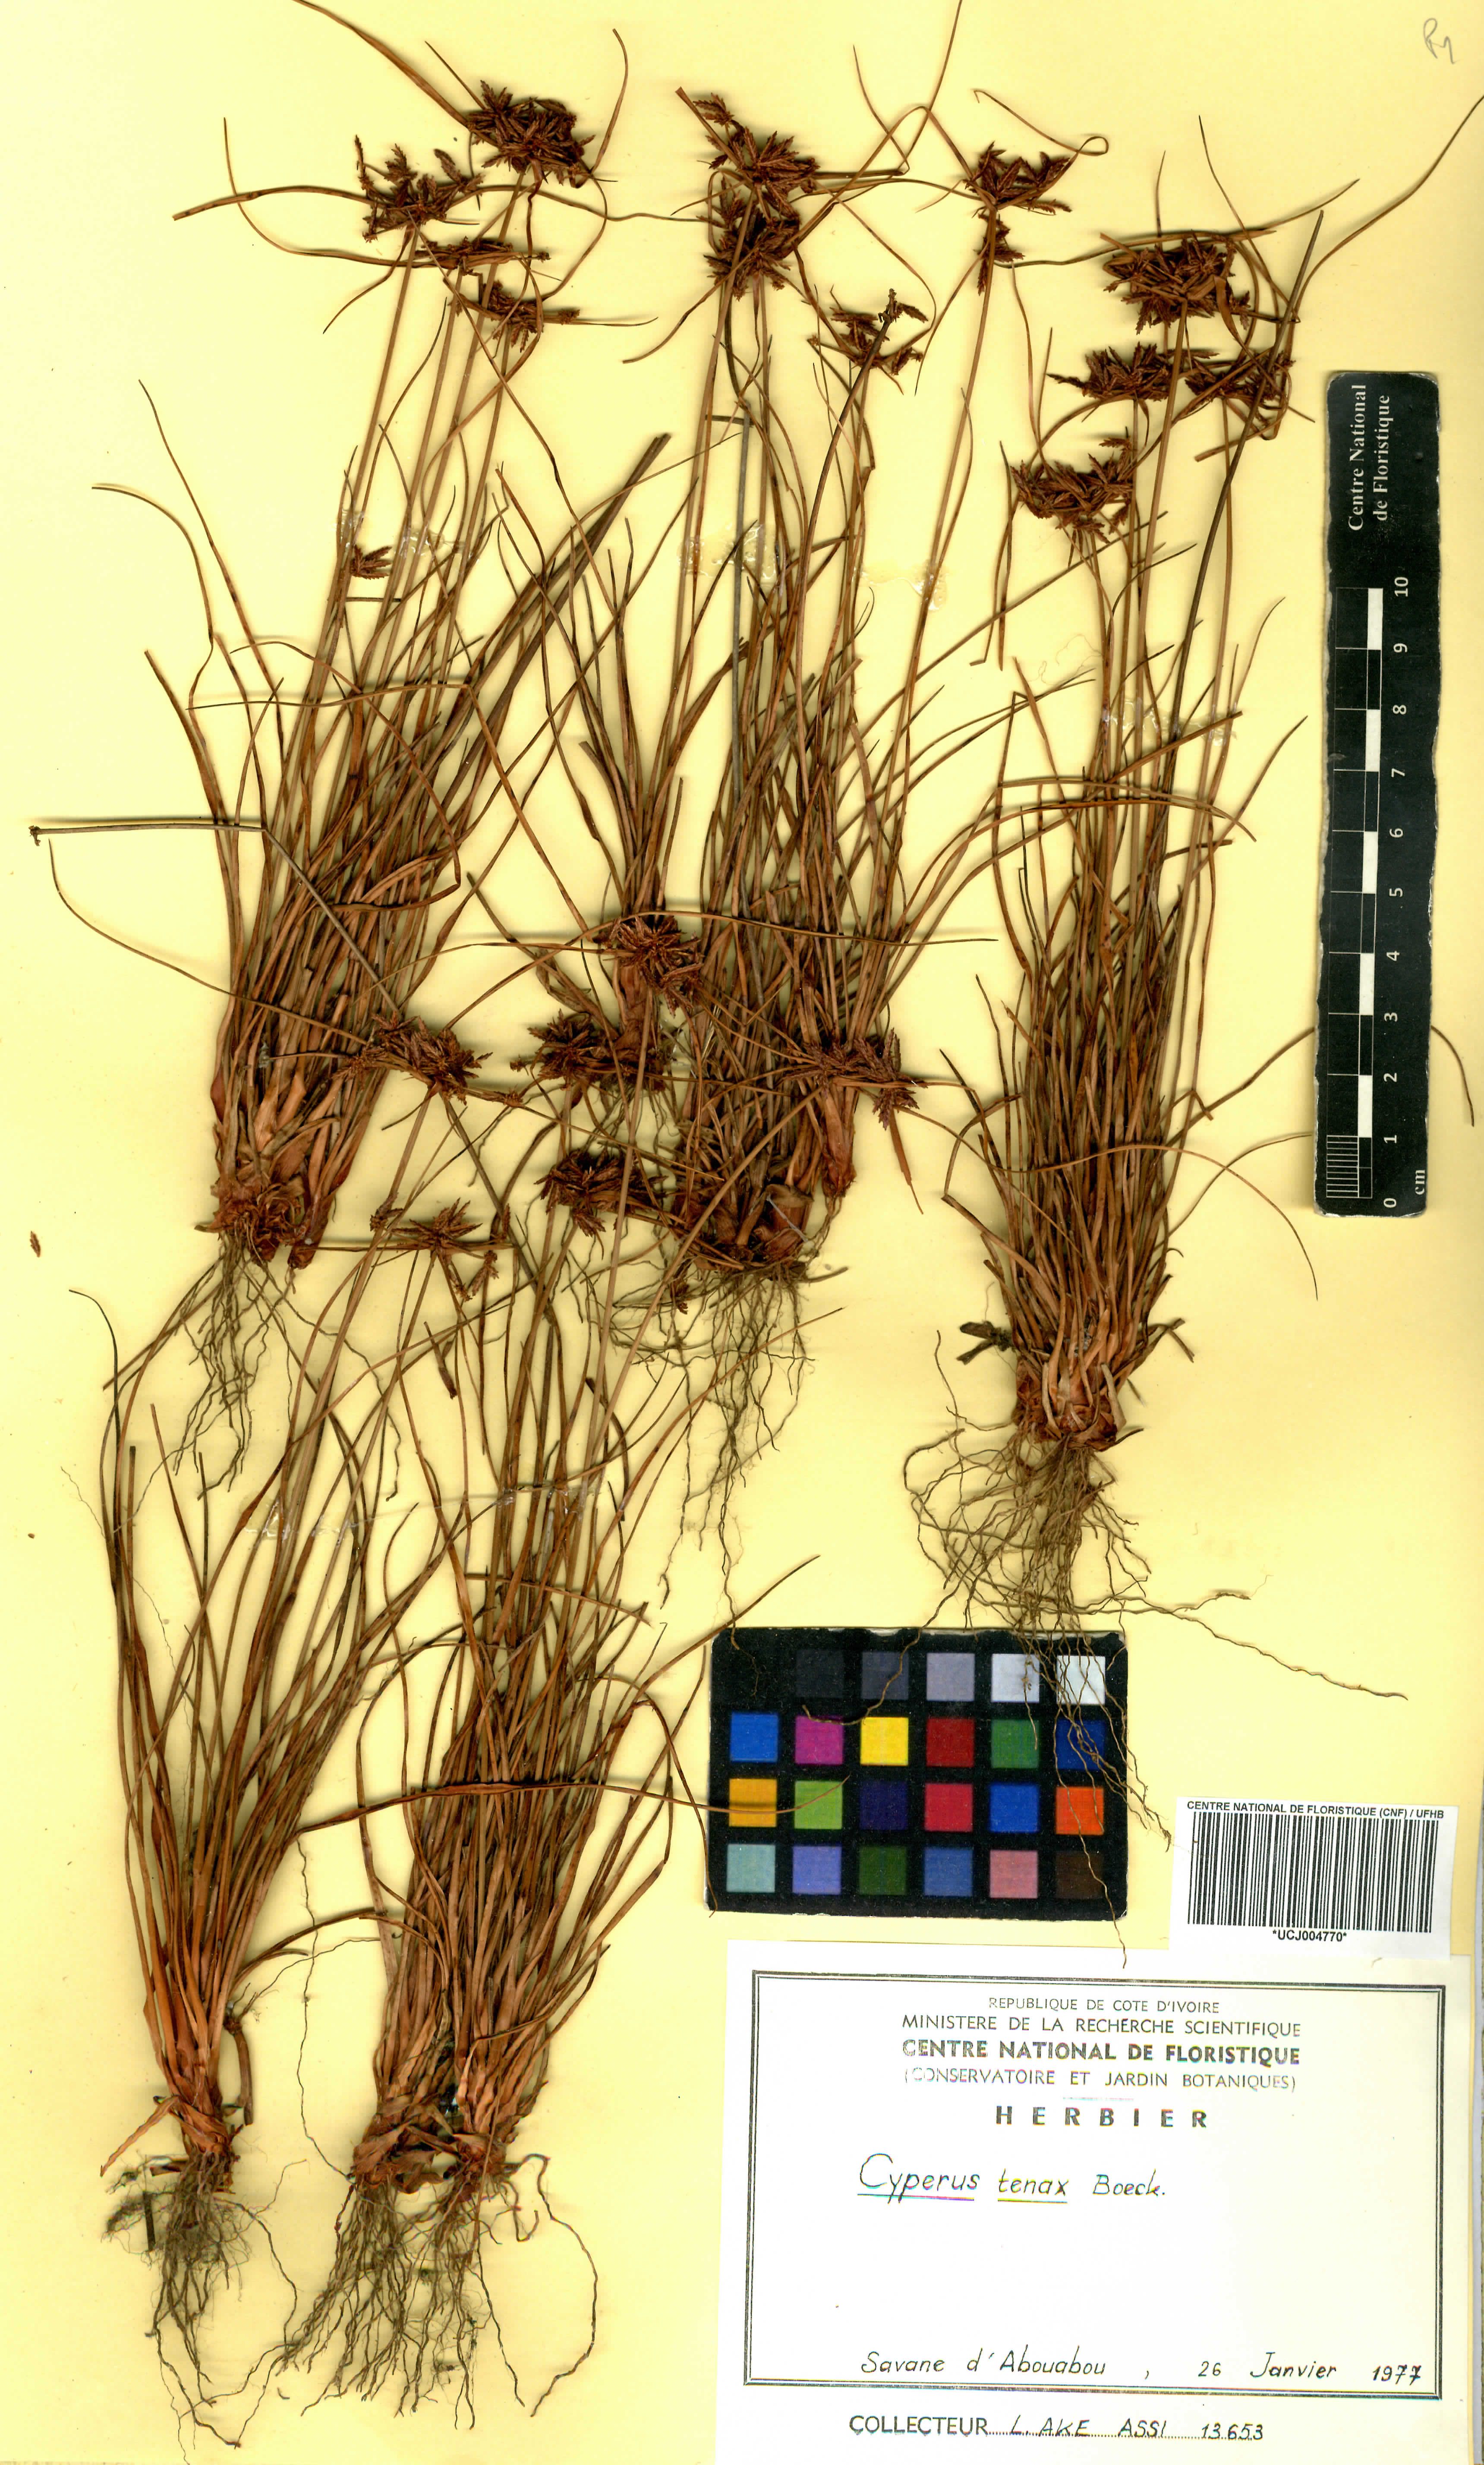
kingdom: Plantae
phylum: Tracheophyta
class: Liliopsida
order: Poales
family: Cyperaceae
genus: Cyperus
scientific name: Cyperus tenax
